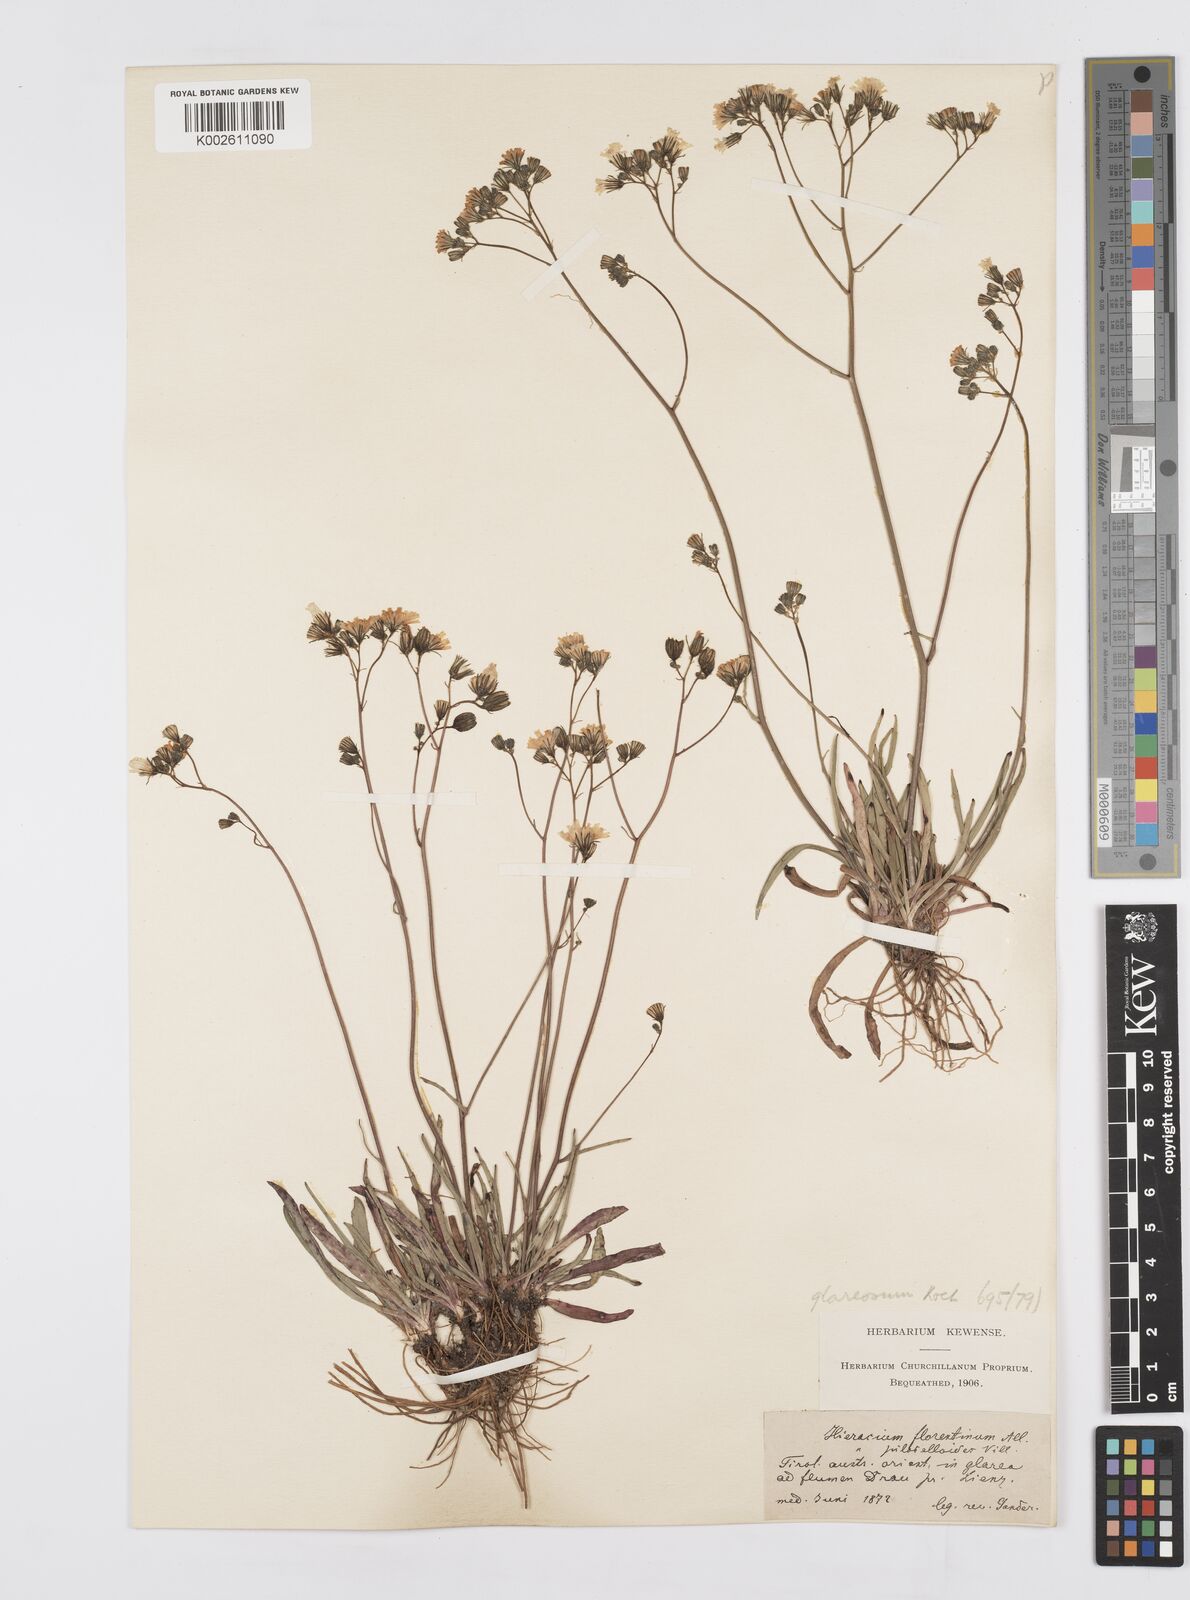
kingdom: Plantae
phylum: Tracheophyta
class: Magnoliopsida
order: Asterales
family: Asteraceae
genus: Pilosella
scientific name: Pilosella piloselloides
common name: Glaucous king-devil
